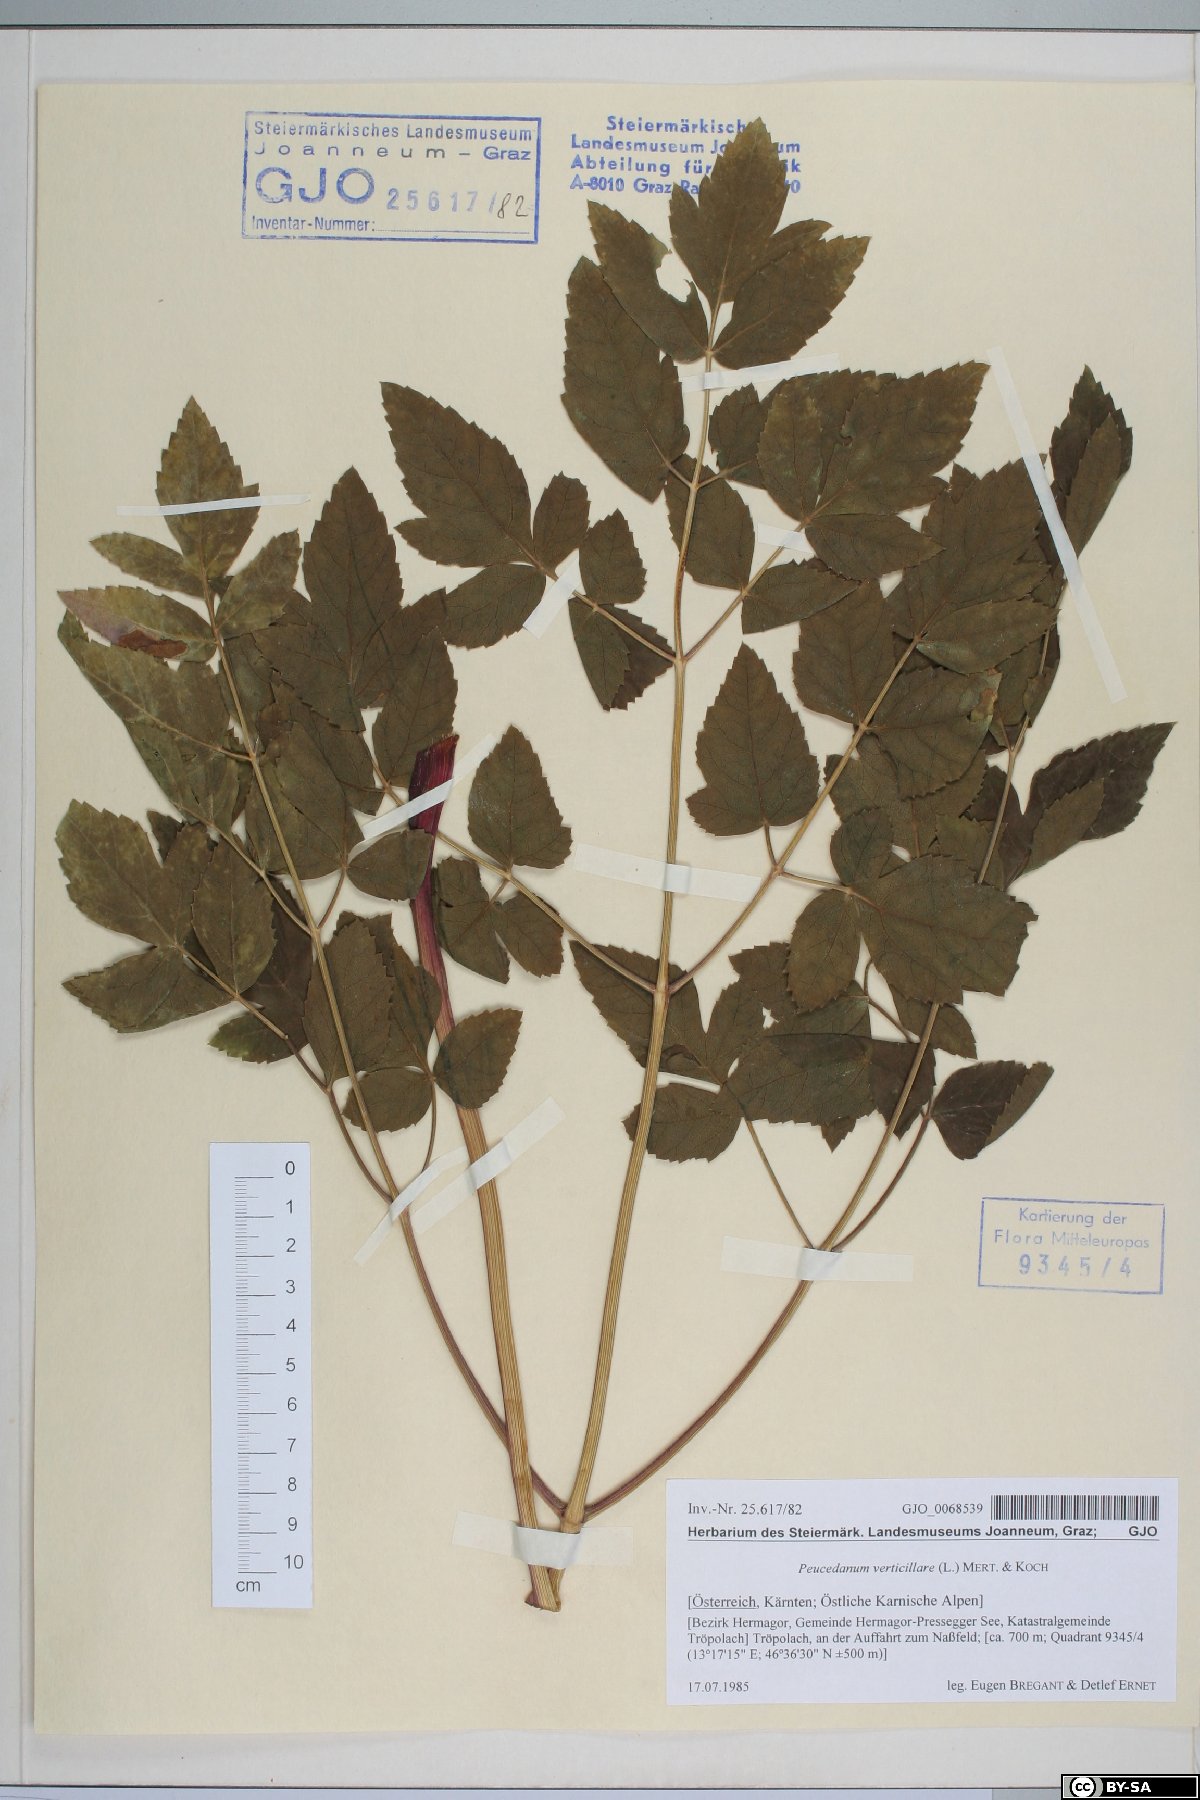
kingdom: Plantae
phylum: Tracheophyta
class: Magnoliopsida
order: Apiales
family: Apiaceae
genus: Tommasinia
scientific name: Tommasinia altissima
